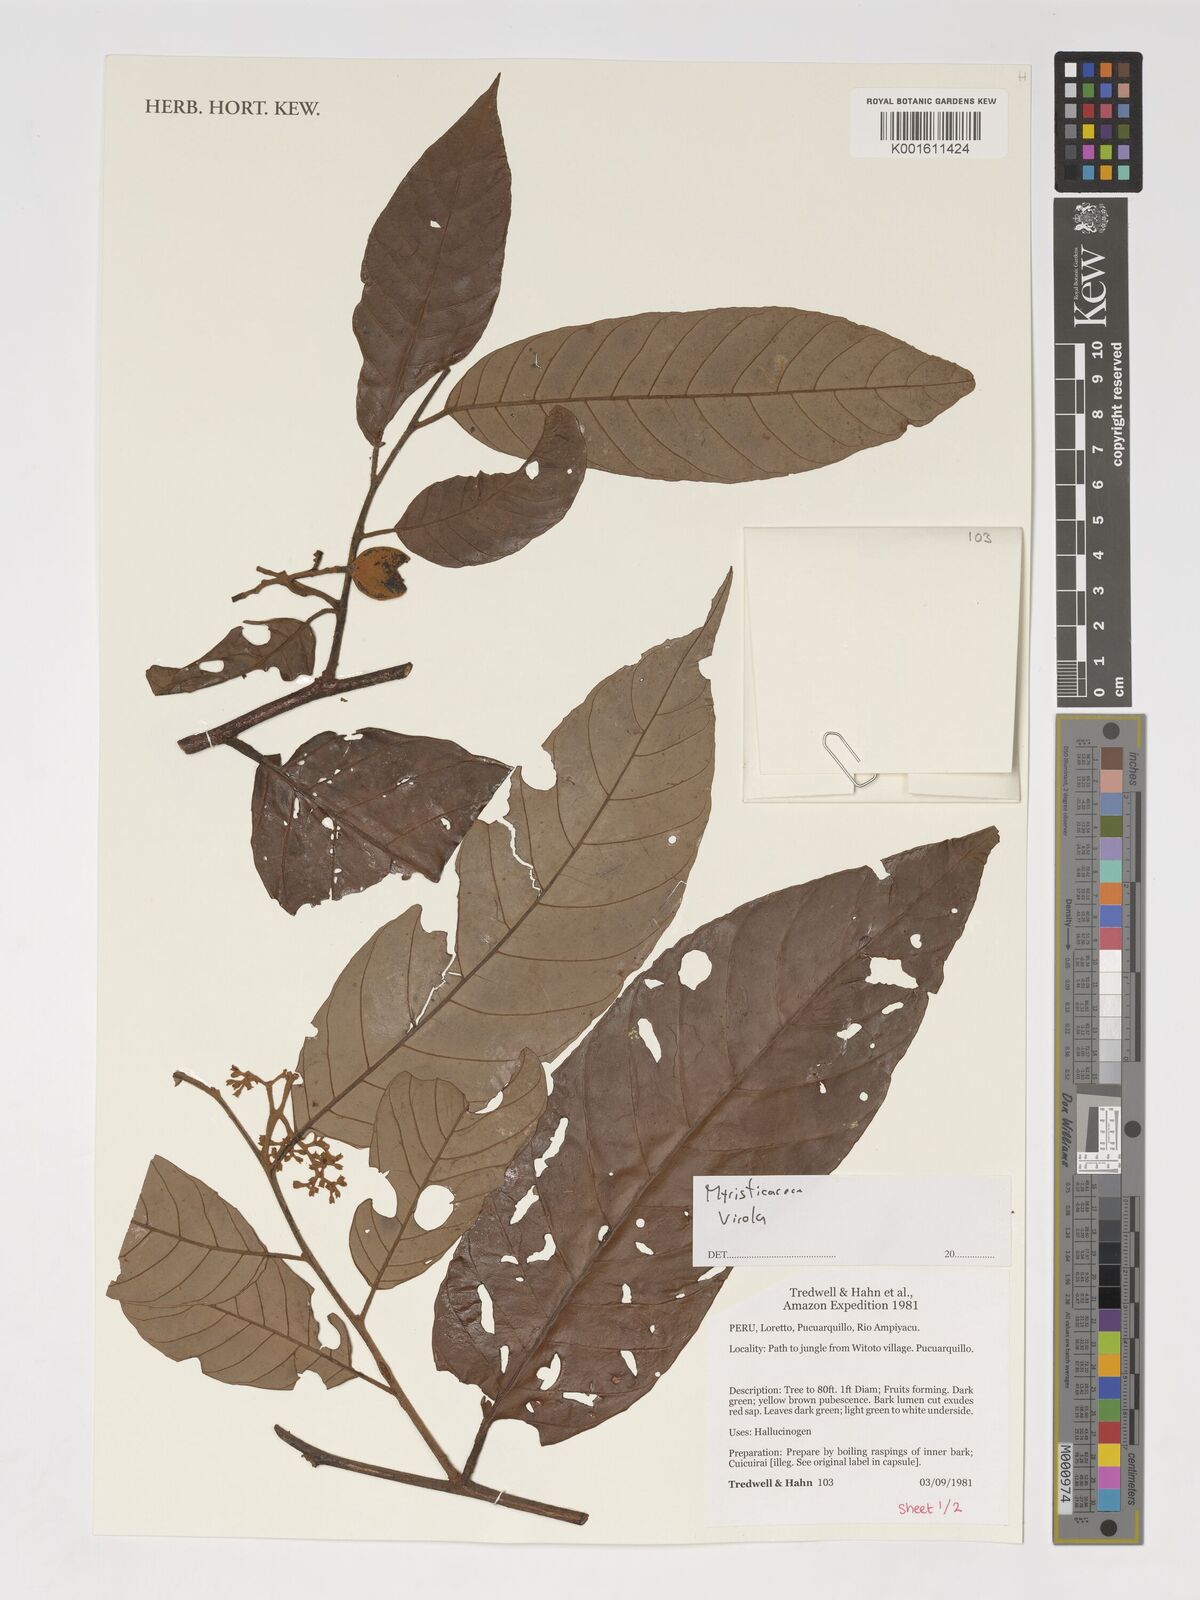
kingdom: Plantae
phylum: Tracheophyta
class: Magnoliopsida
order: Magnoliales
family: Myristicaceae
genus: Virola
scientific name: Virola
